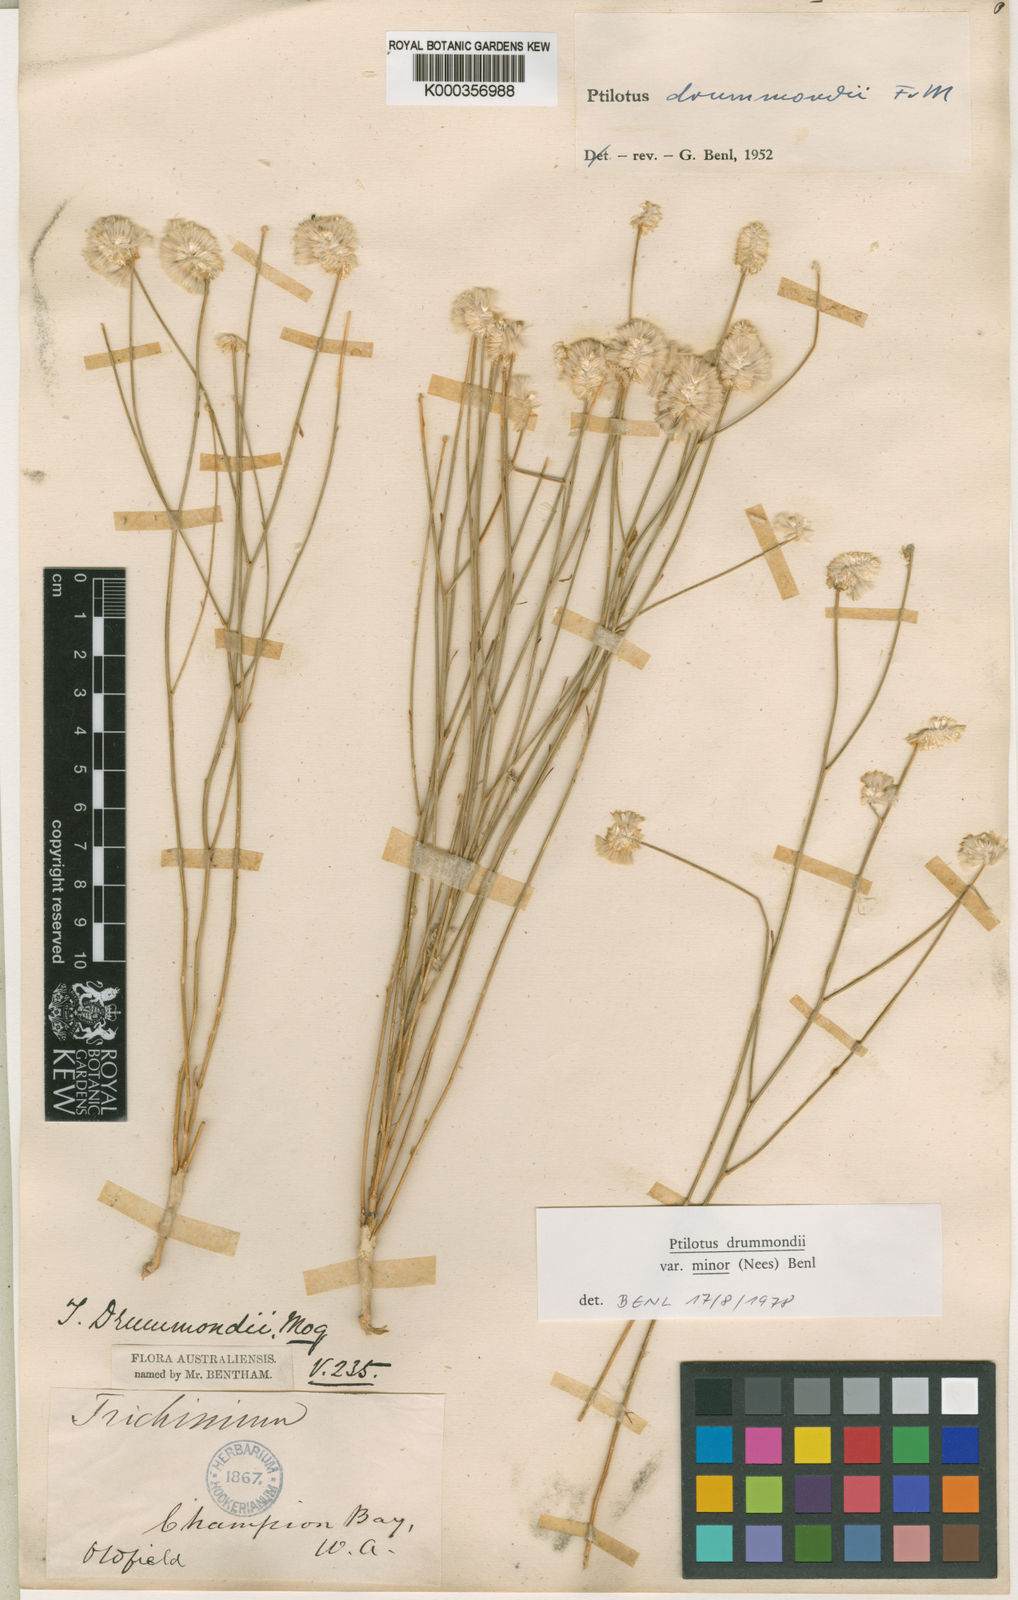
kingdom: Plantae
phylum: Tracheophyta
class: Magnoliopsida
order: Caryophyllales
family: Amaranthaceae
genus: Ptilotus
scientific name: Ptilotus drummondii
